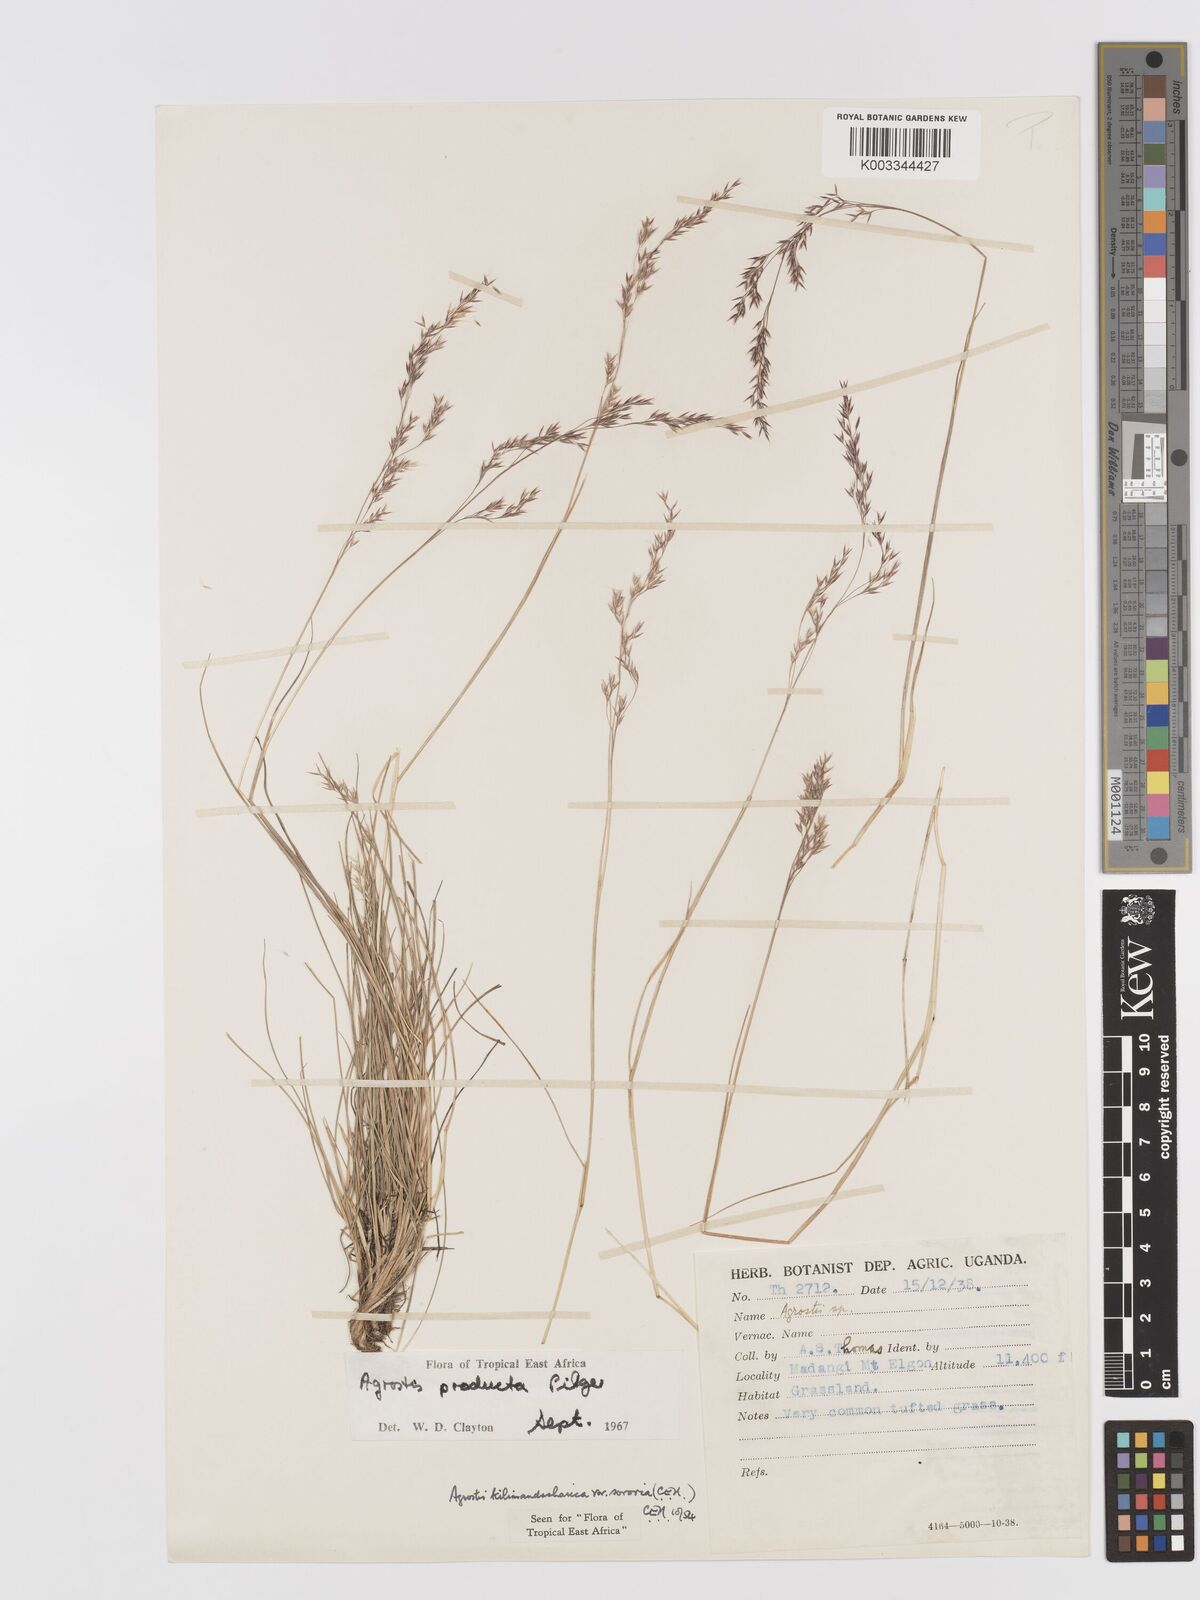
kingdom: Plantae
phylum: Tracheophyta
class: Liliopsida
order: Poales
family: Poaceae
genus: Agrostis
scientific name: Agrostis producta
